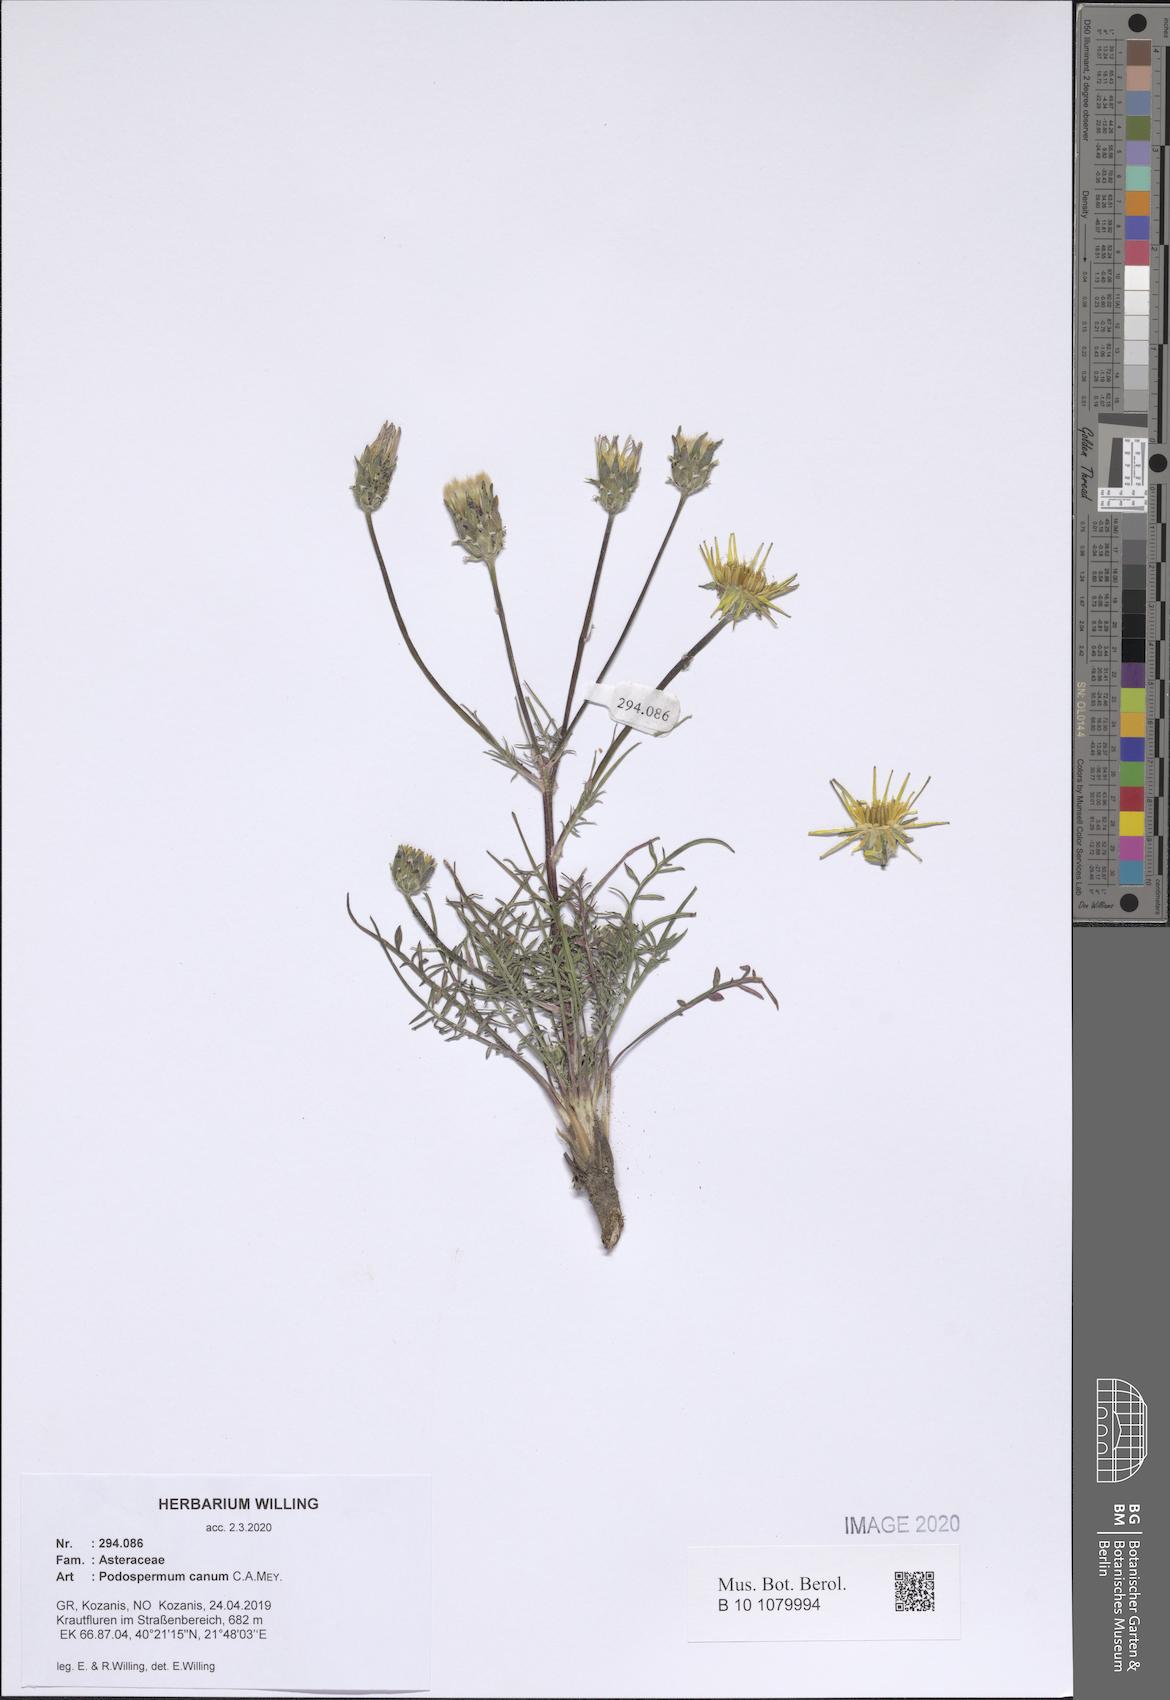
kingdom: Plantae
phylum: Tracheophyta
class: Magnoliopsida
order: Asterales
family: Asteraceae
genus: Scorzonera
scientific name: Scorzonera cana
